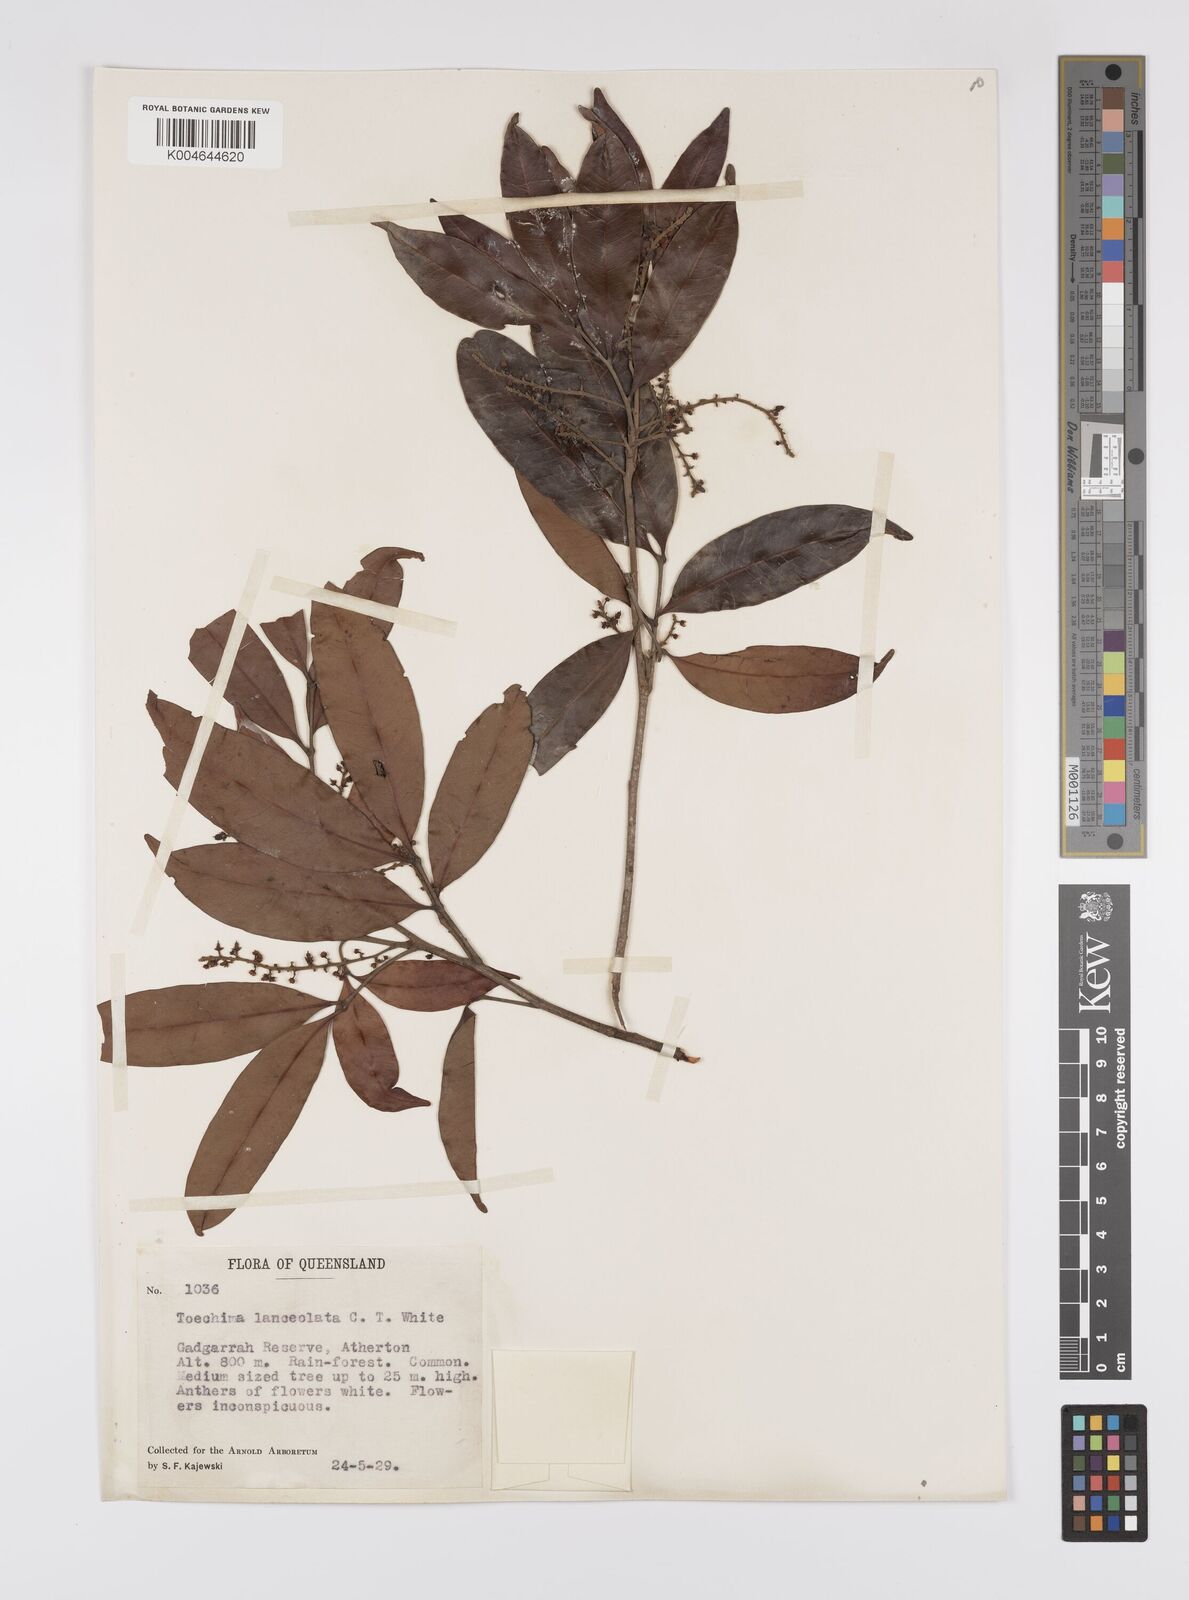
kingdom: Plantae
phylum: Tracheophyta
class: Magnoliopsida
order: Sapindales
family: Sapindaceae
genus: Sarcotoechia
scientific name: Sarcotoechia lanceolata
